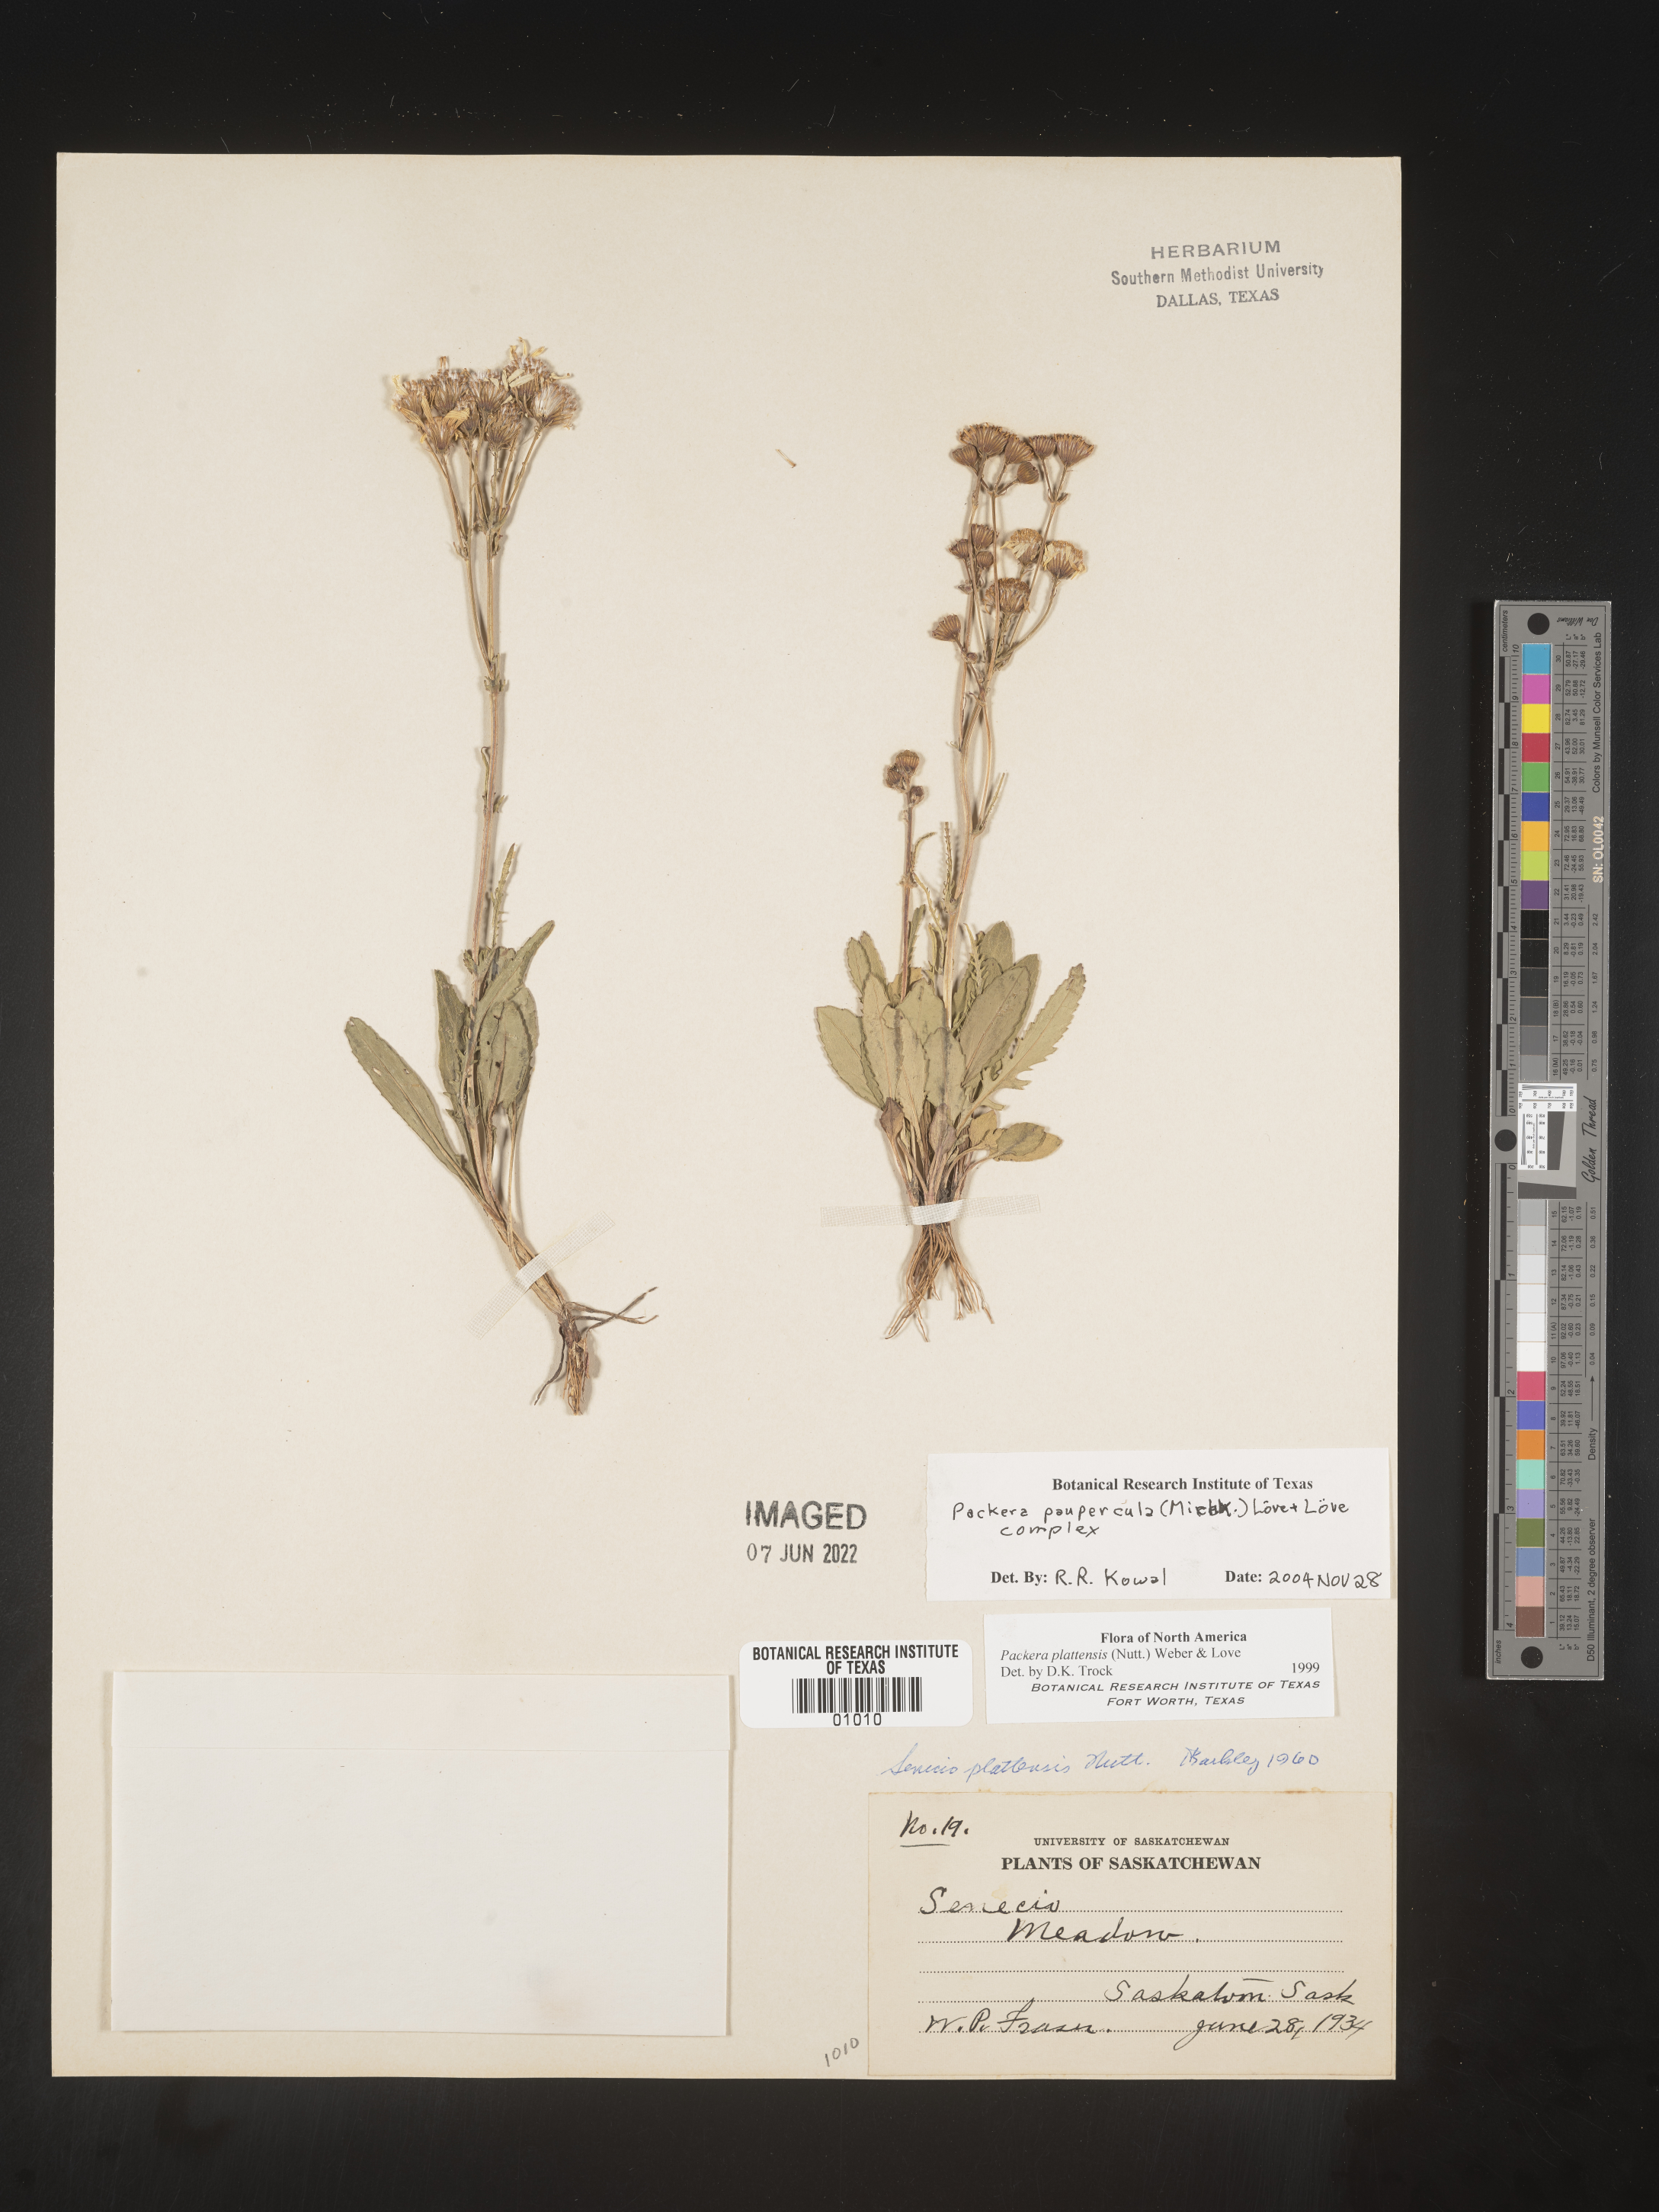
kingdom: Plantae
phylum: Tracheophyta
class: Magnoliopsida
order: Asterales
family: Asteraceae
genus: Packera
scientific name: Packera paupercula
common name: Balsam groundsel
